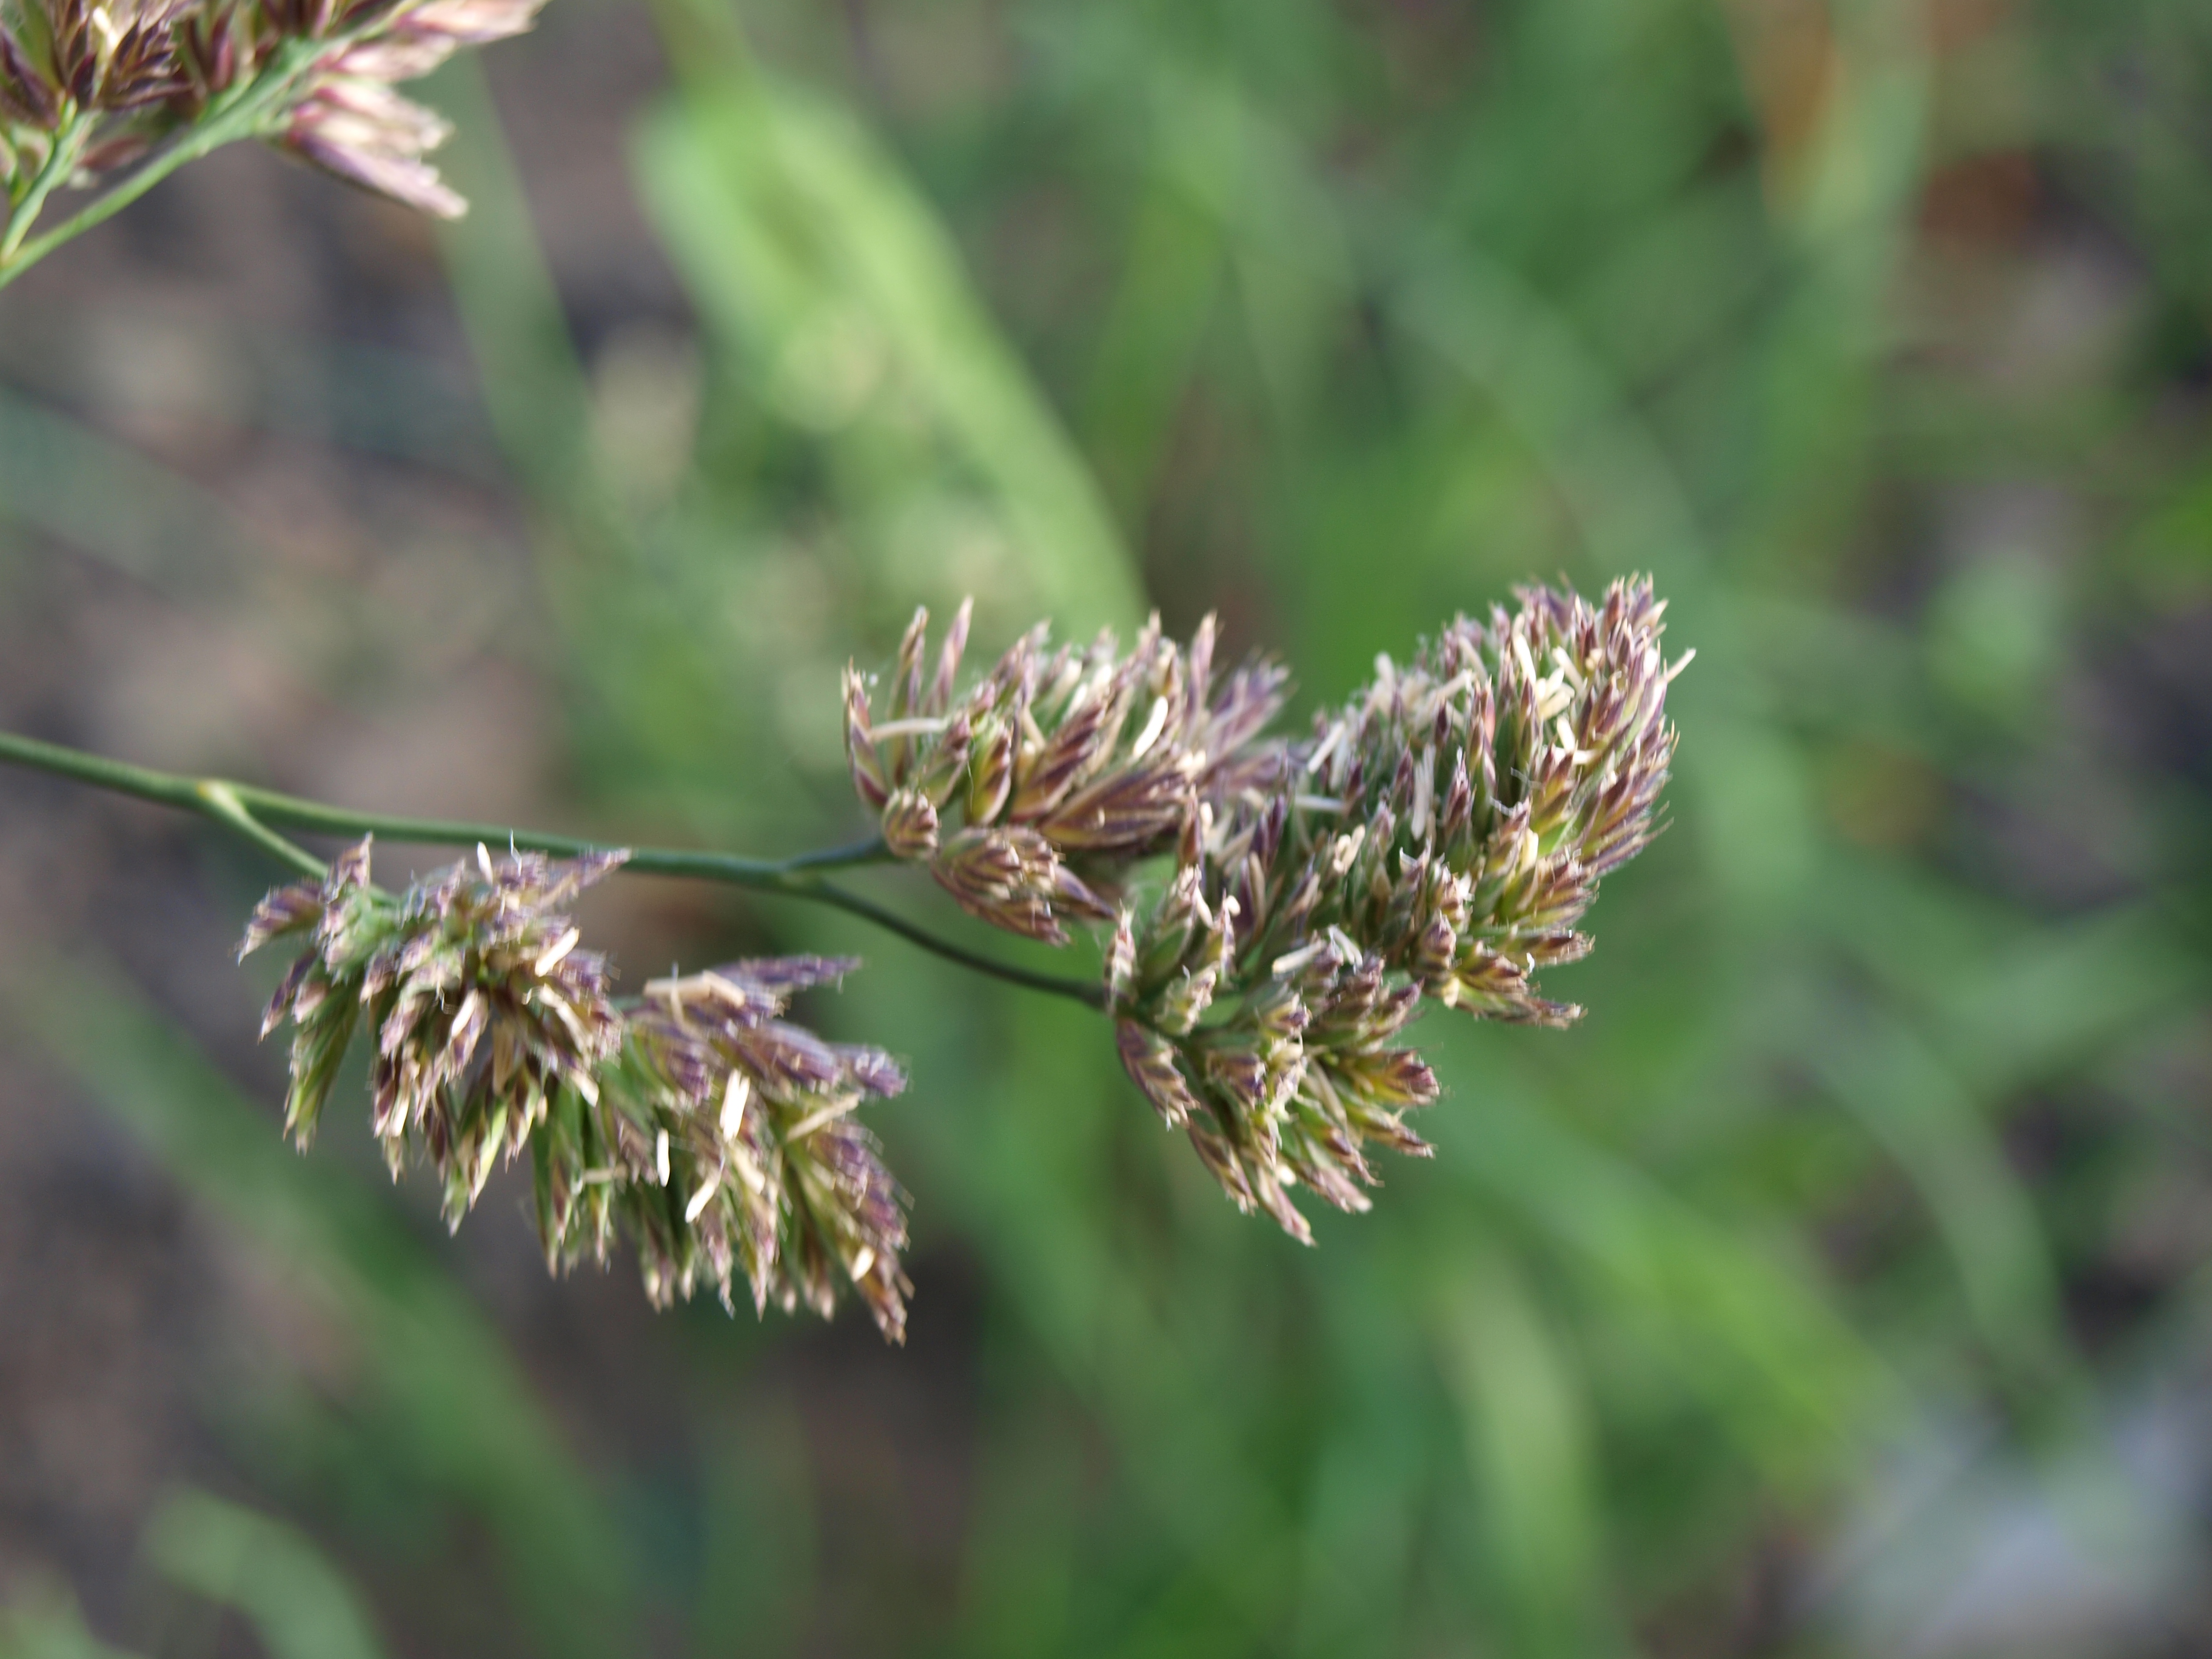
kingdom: Plantae
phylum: Tracheophyta
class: Liliopsida
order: Poales
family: Poaceae
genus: Dactylis
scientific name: Dactylis glomerata
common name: Orchardgrass
